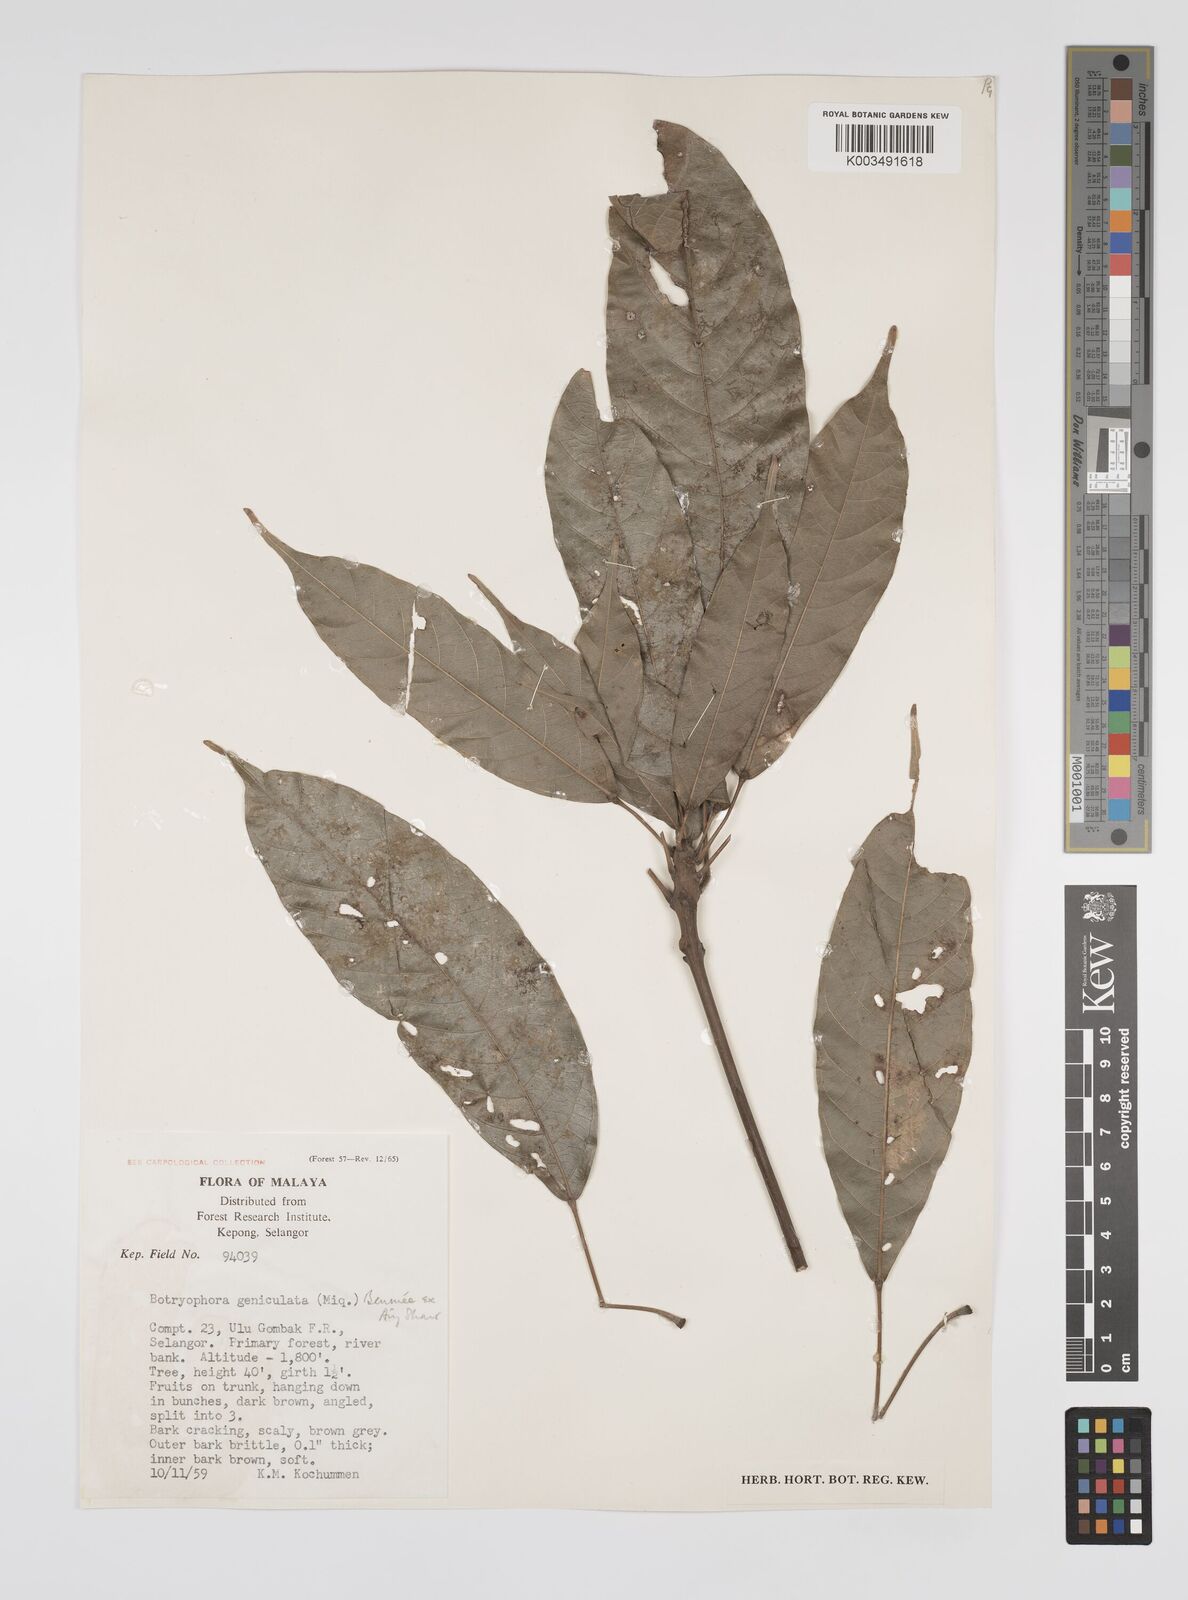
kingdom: Plantae
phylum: Tracheophyta
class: Magnoliopsida
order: Malpighiales
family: Euphorbiaceae
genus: Botryophora
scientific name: Botryophora geniculata
